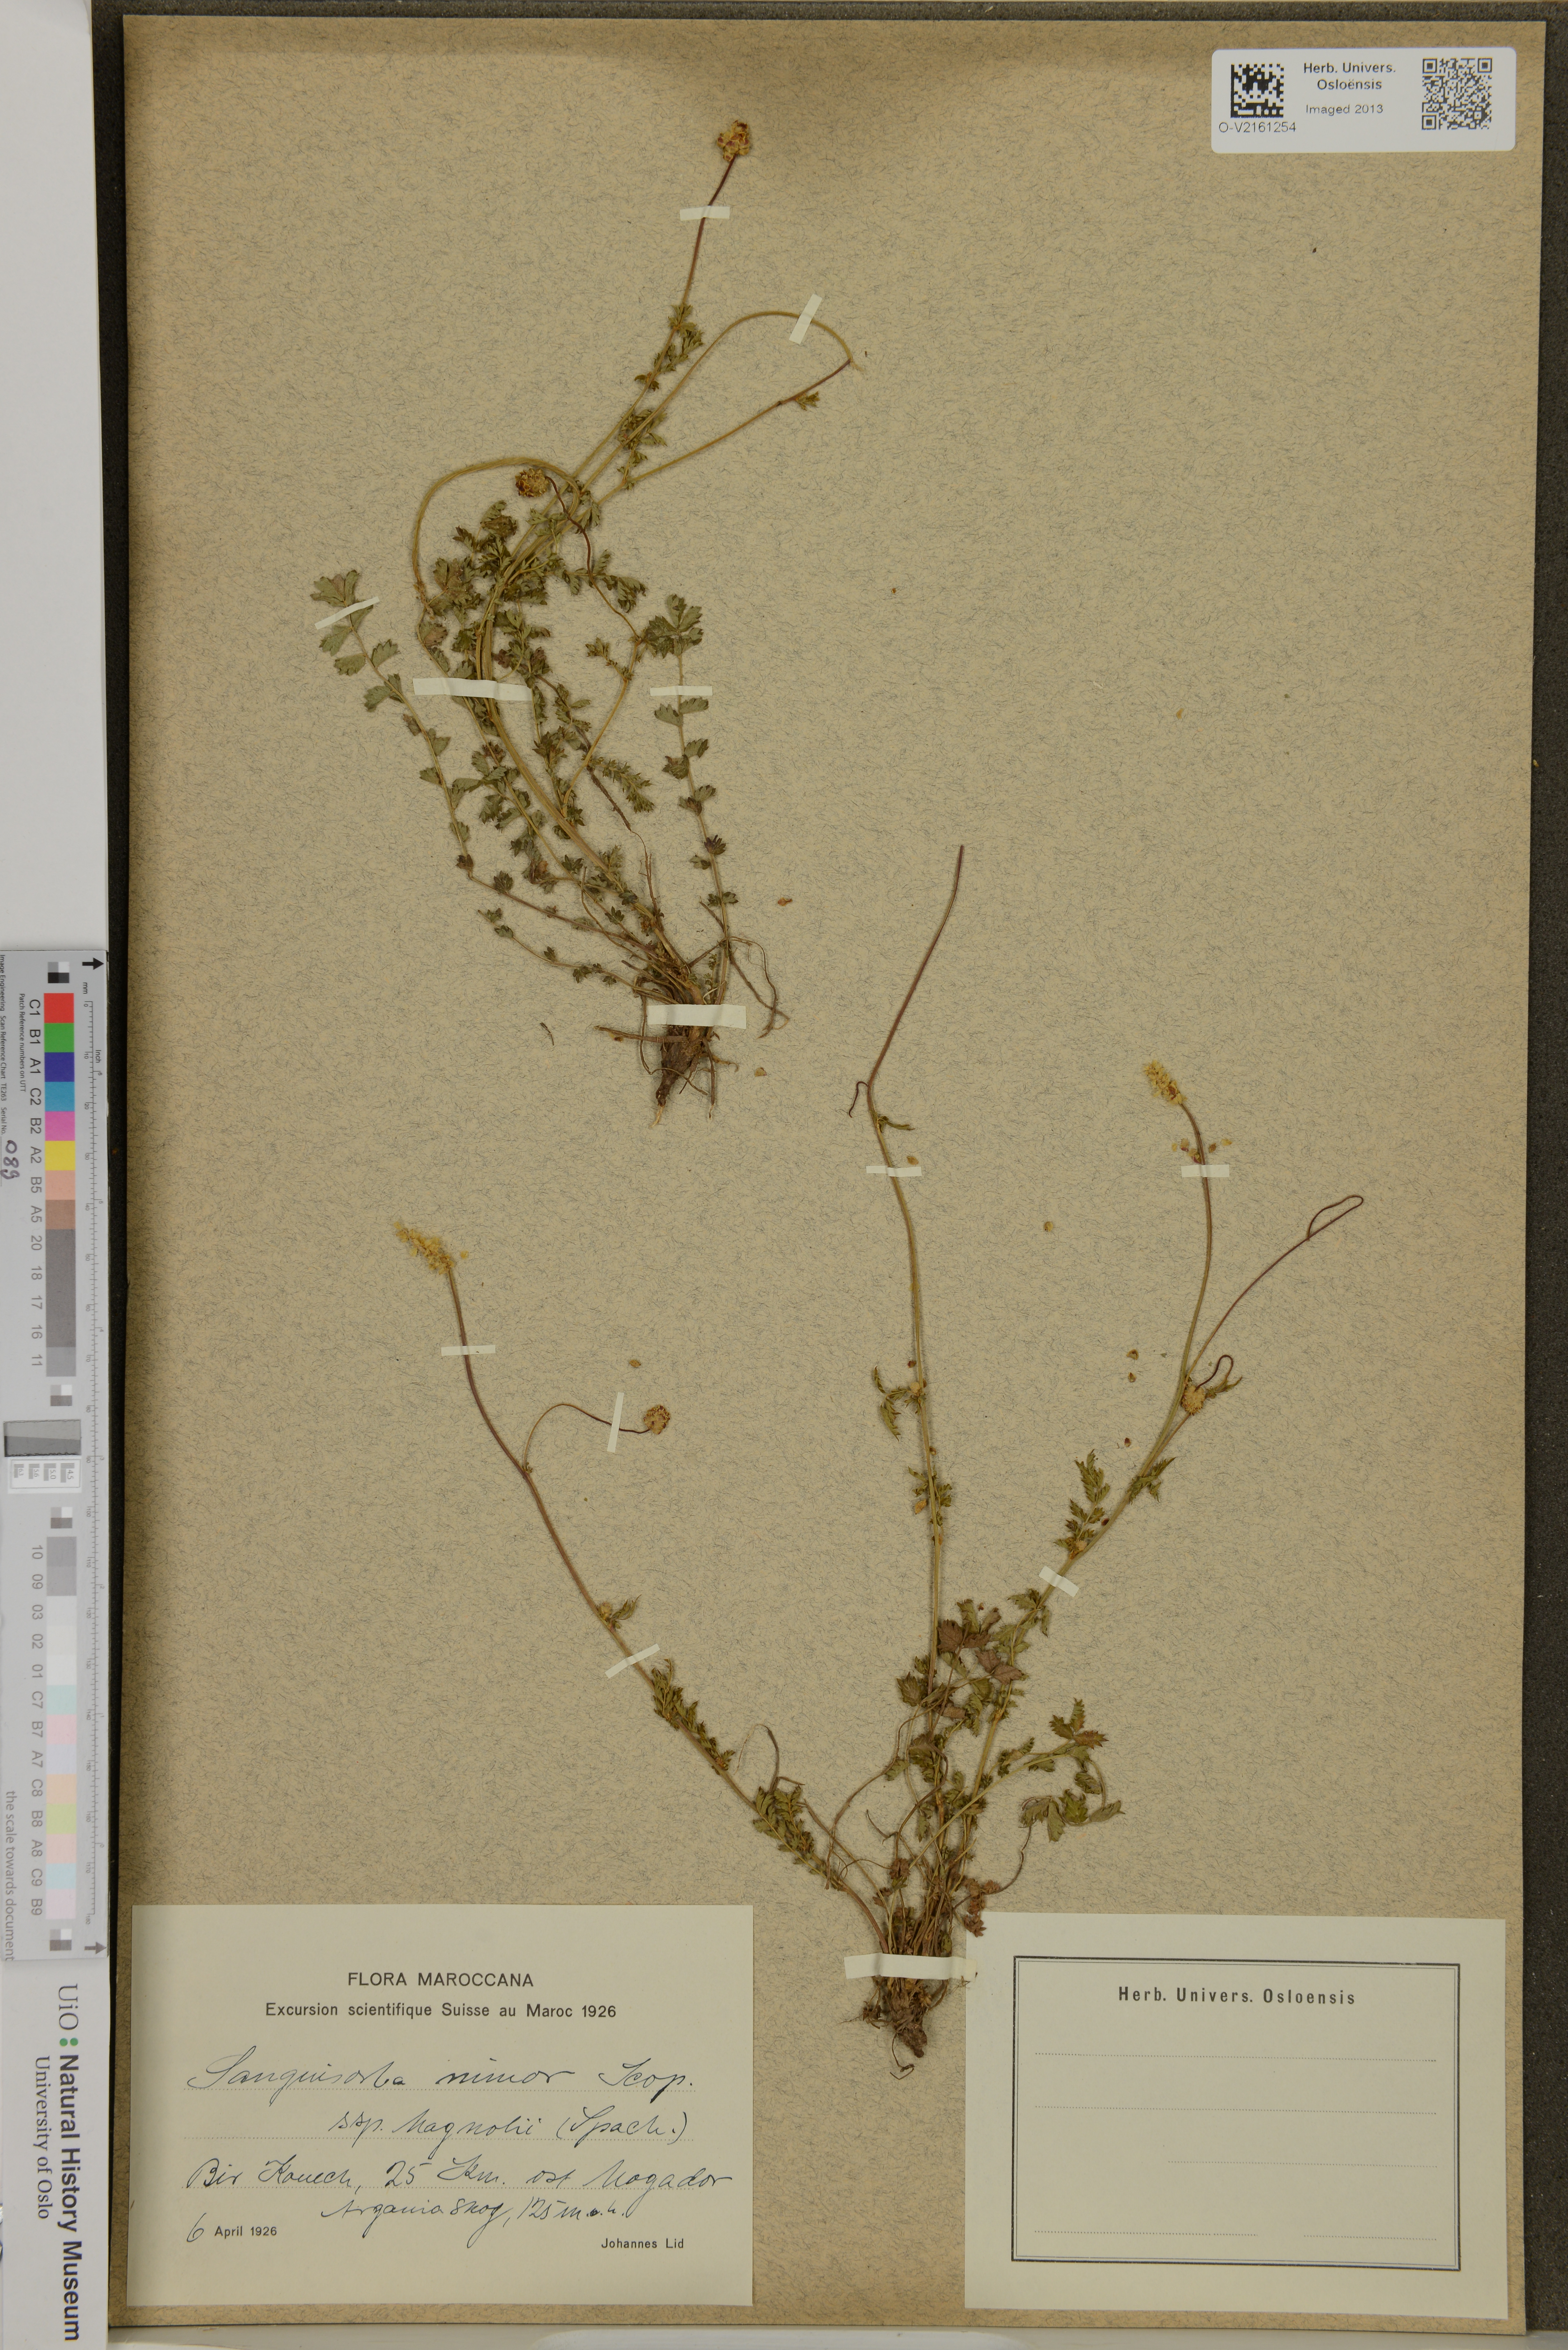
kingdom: Plantae
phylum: Tracheophyta
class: Magnoliopsida
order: Rosales
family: Rosaceae
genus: Poterium
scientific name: Poterium sanguisorba
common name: Salad burnet
